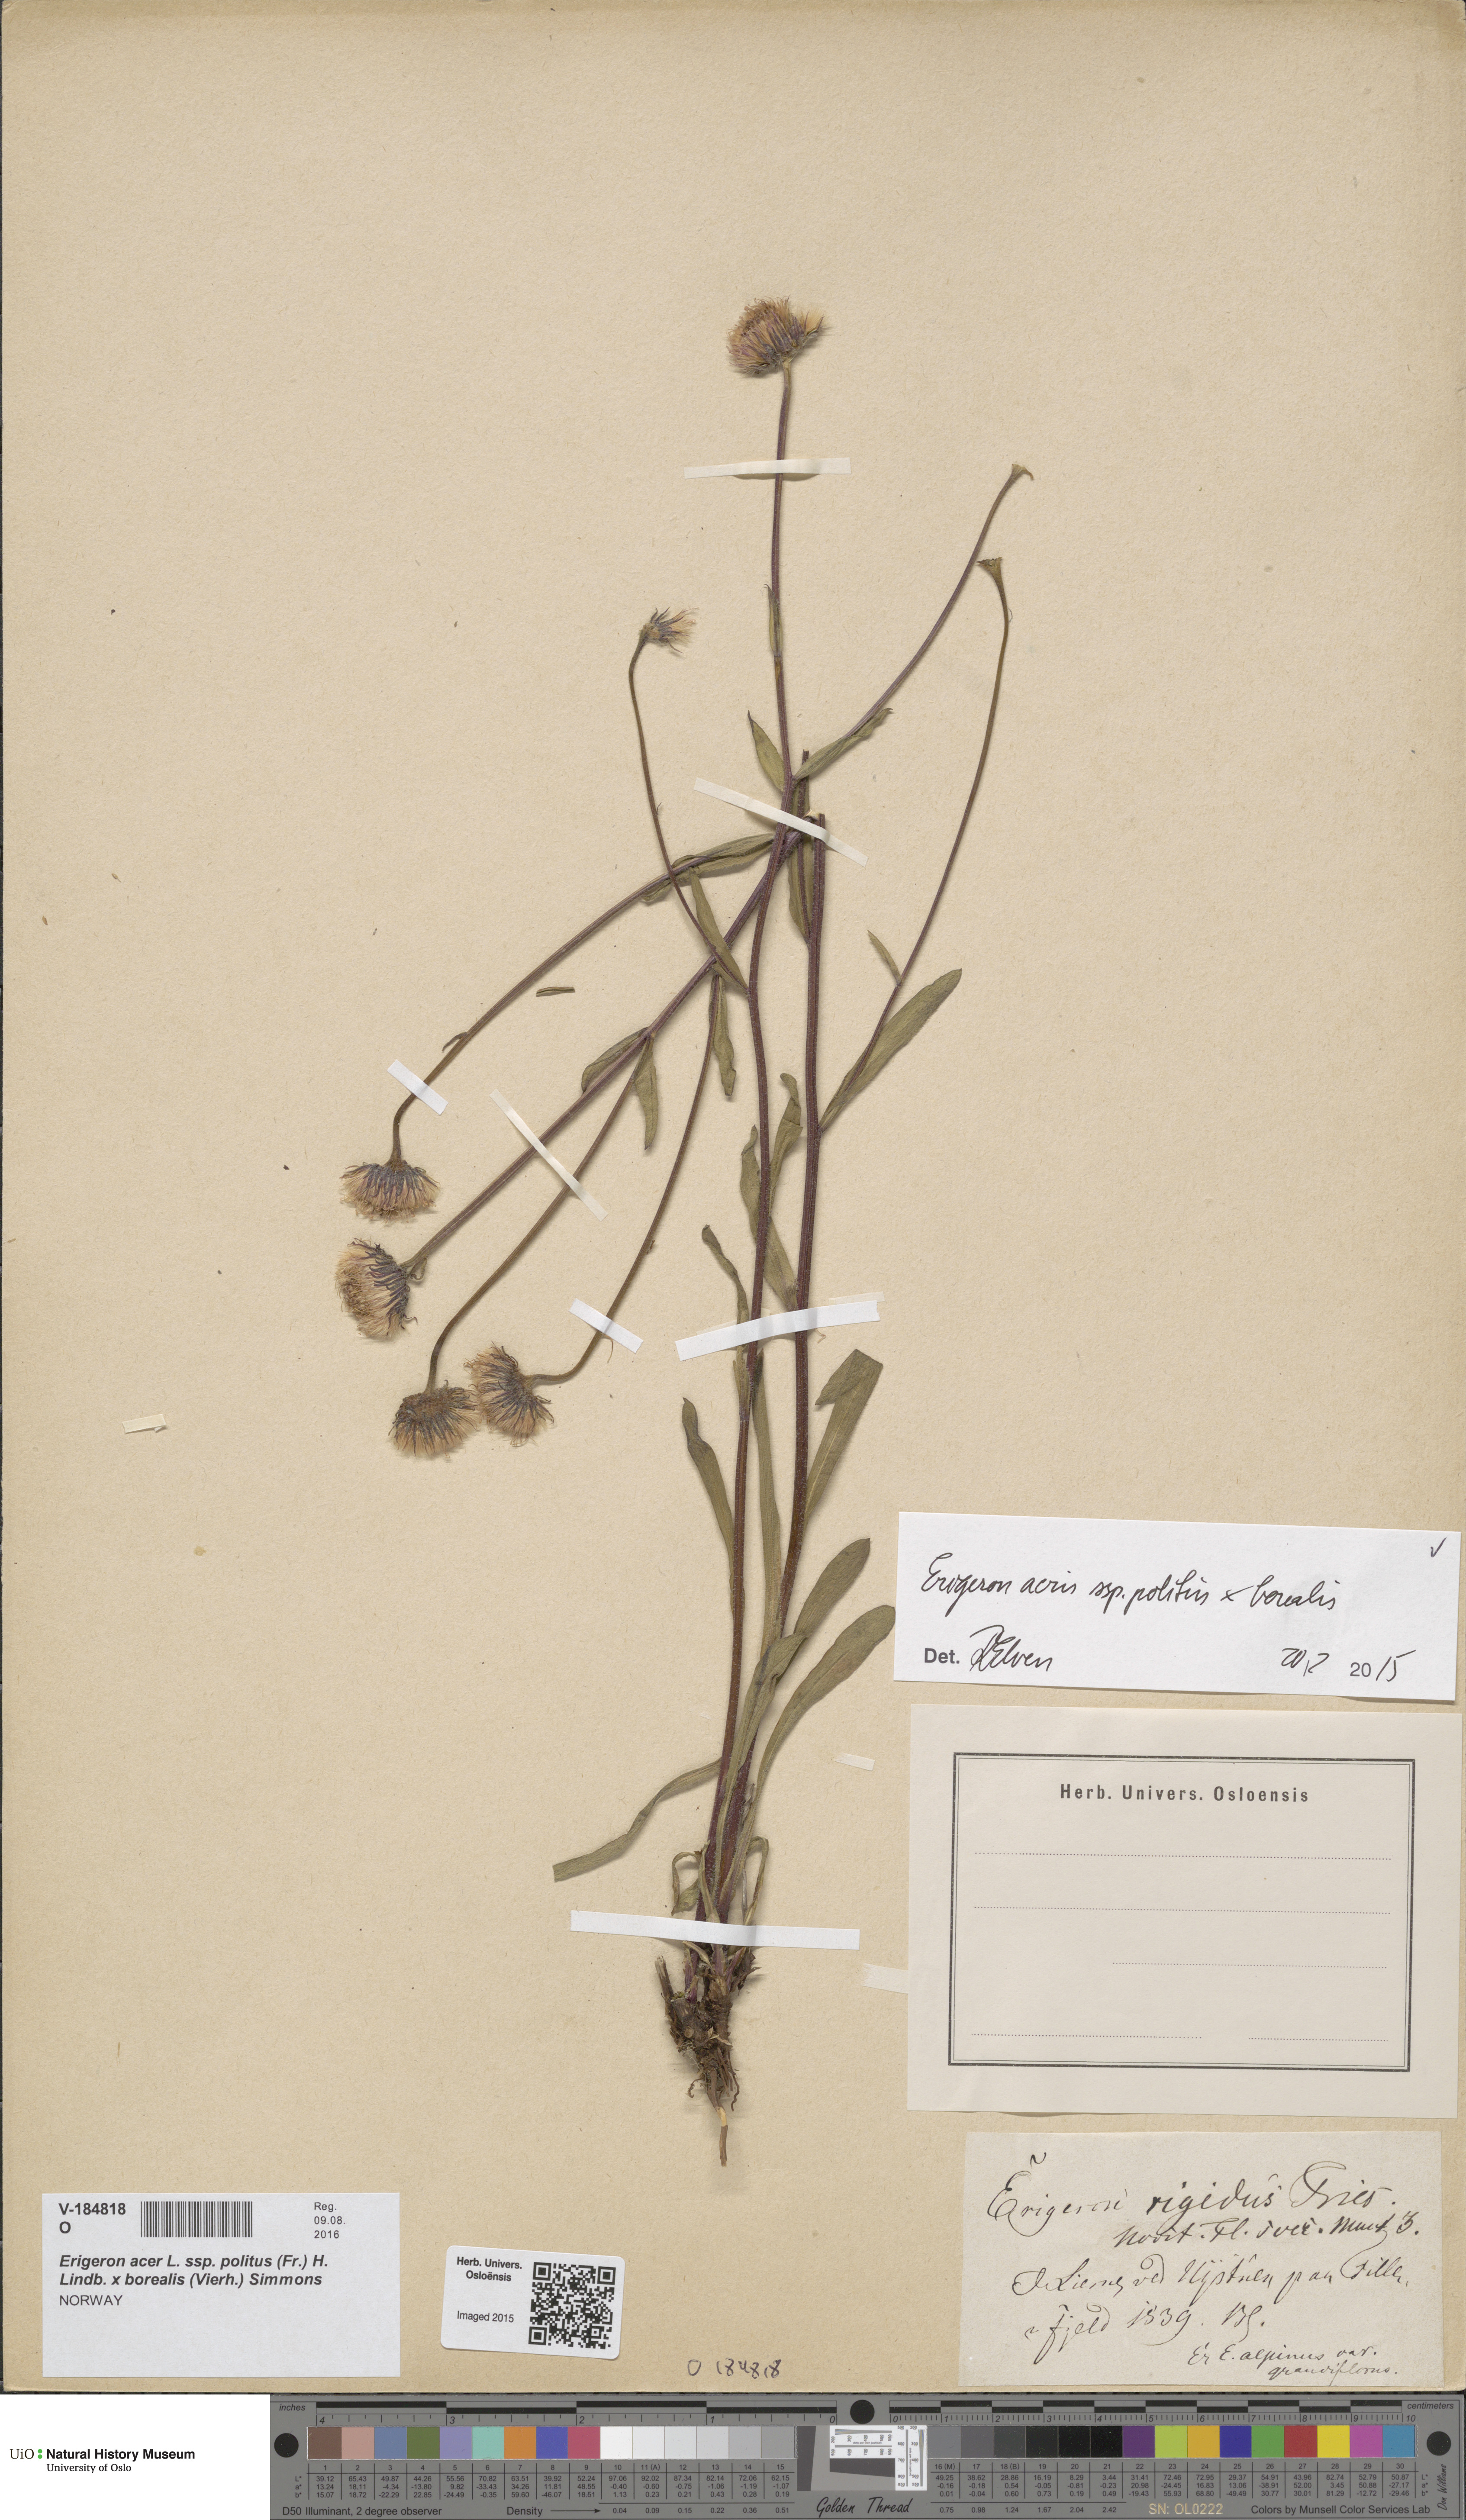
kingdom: Plantae
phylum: Tracheophyta
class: Magnoliopsida
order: Asterales
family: Asteraceae
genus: Erigeron
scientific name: Erigeron
